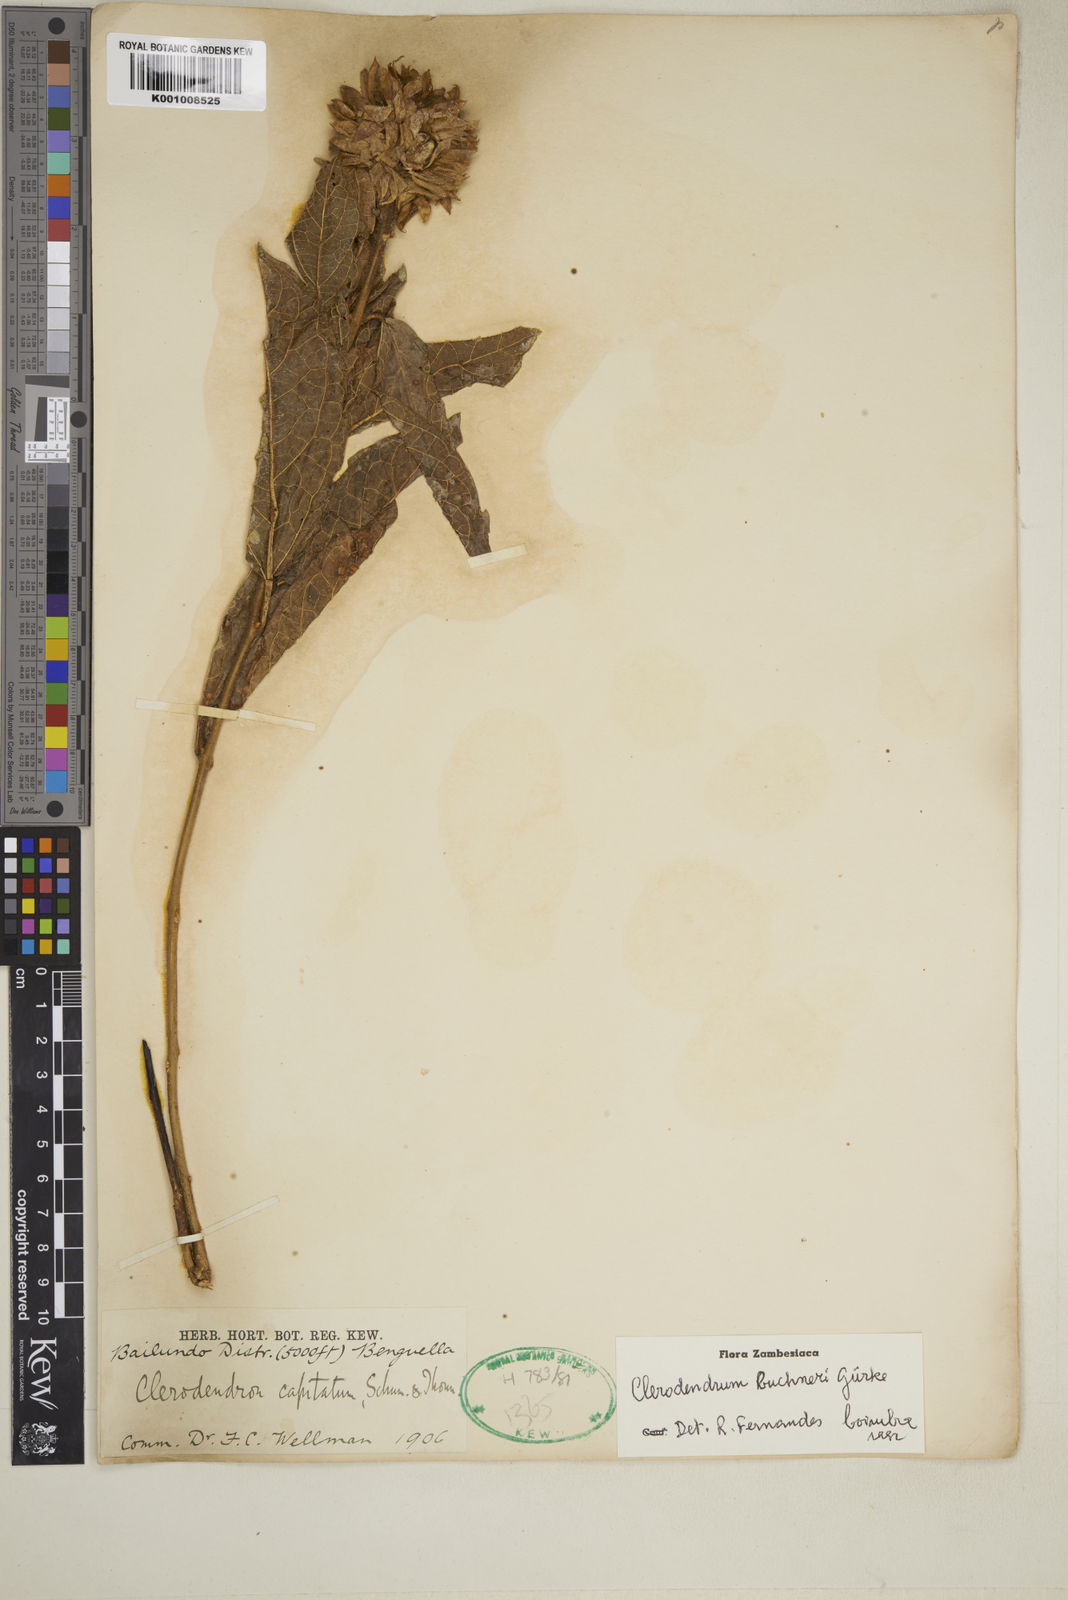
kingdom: Plantae
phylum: Tracheophyta
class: Magnoliopsida
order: Lamiales
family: Lamiaceae
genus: Clerodendrum
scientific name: Clerodendrum
